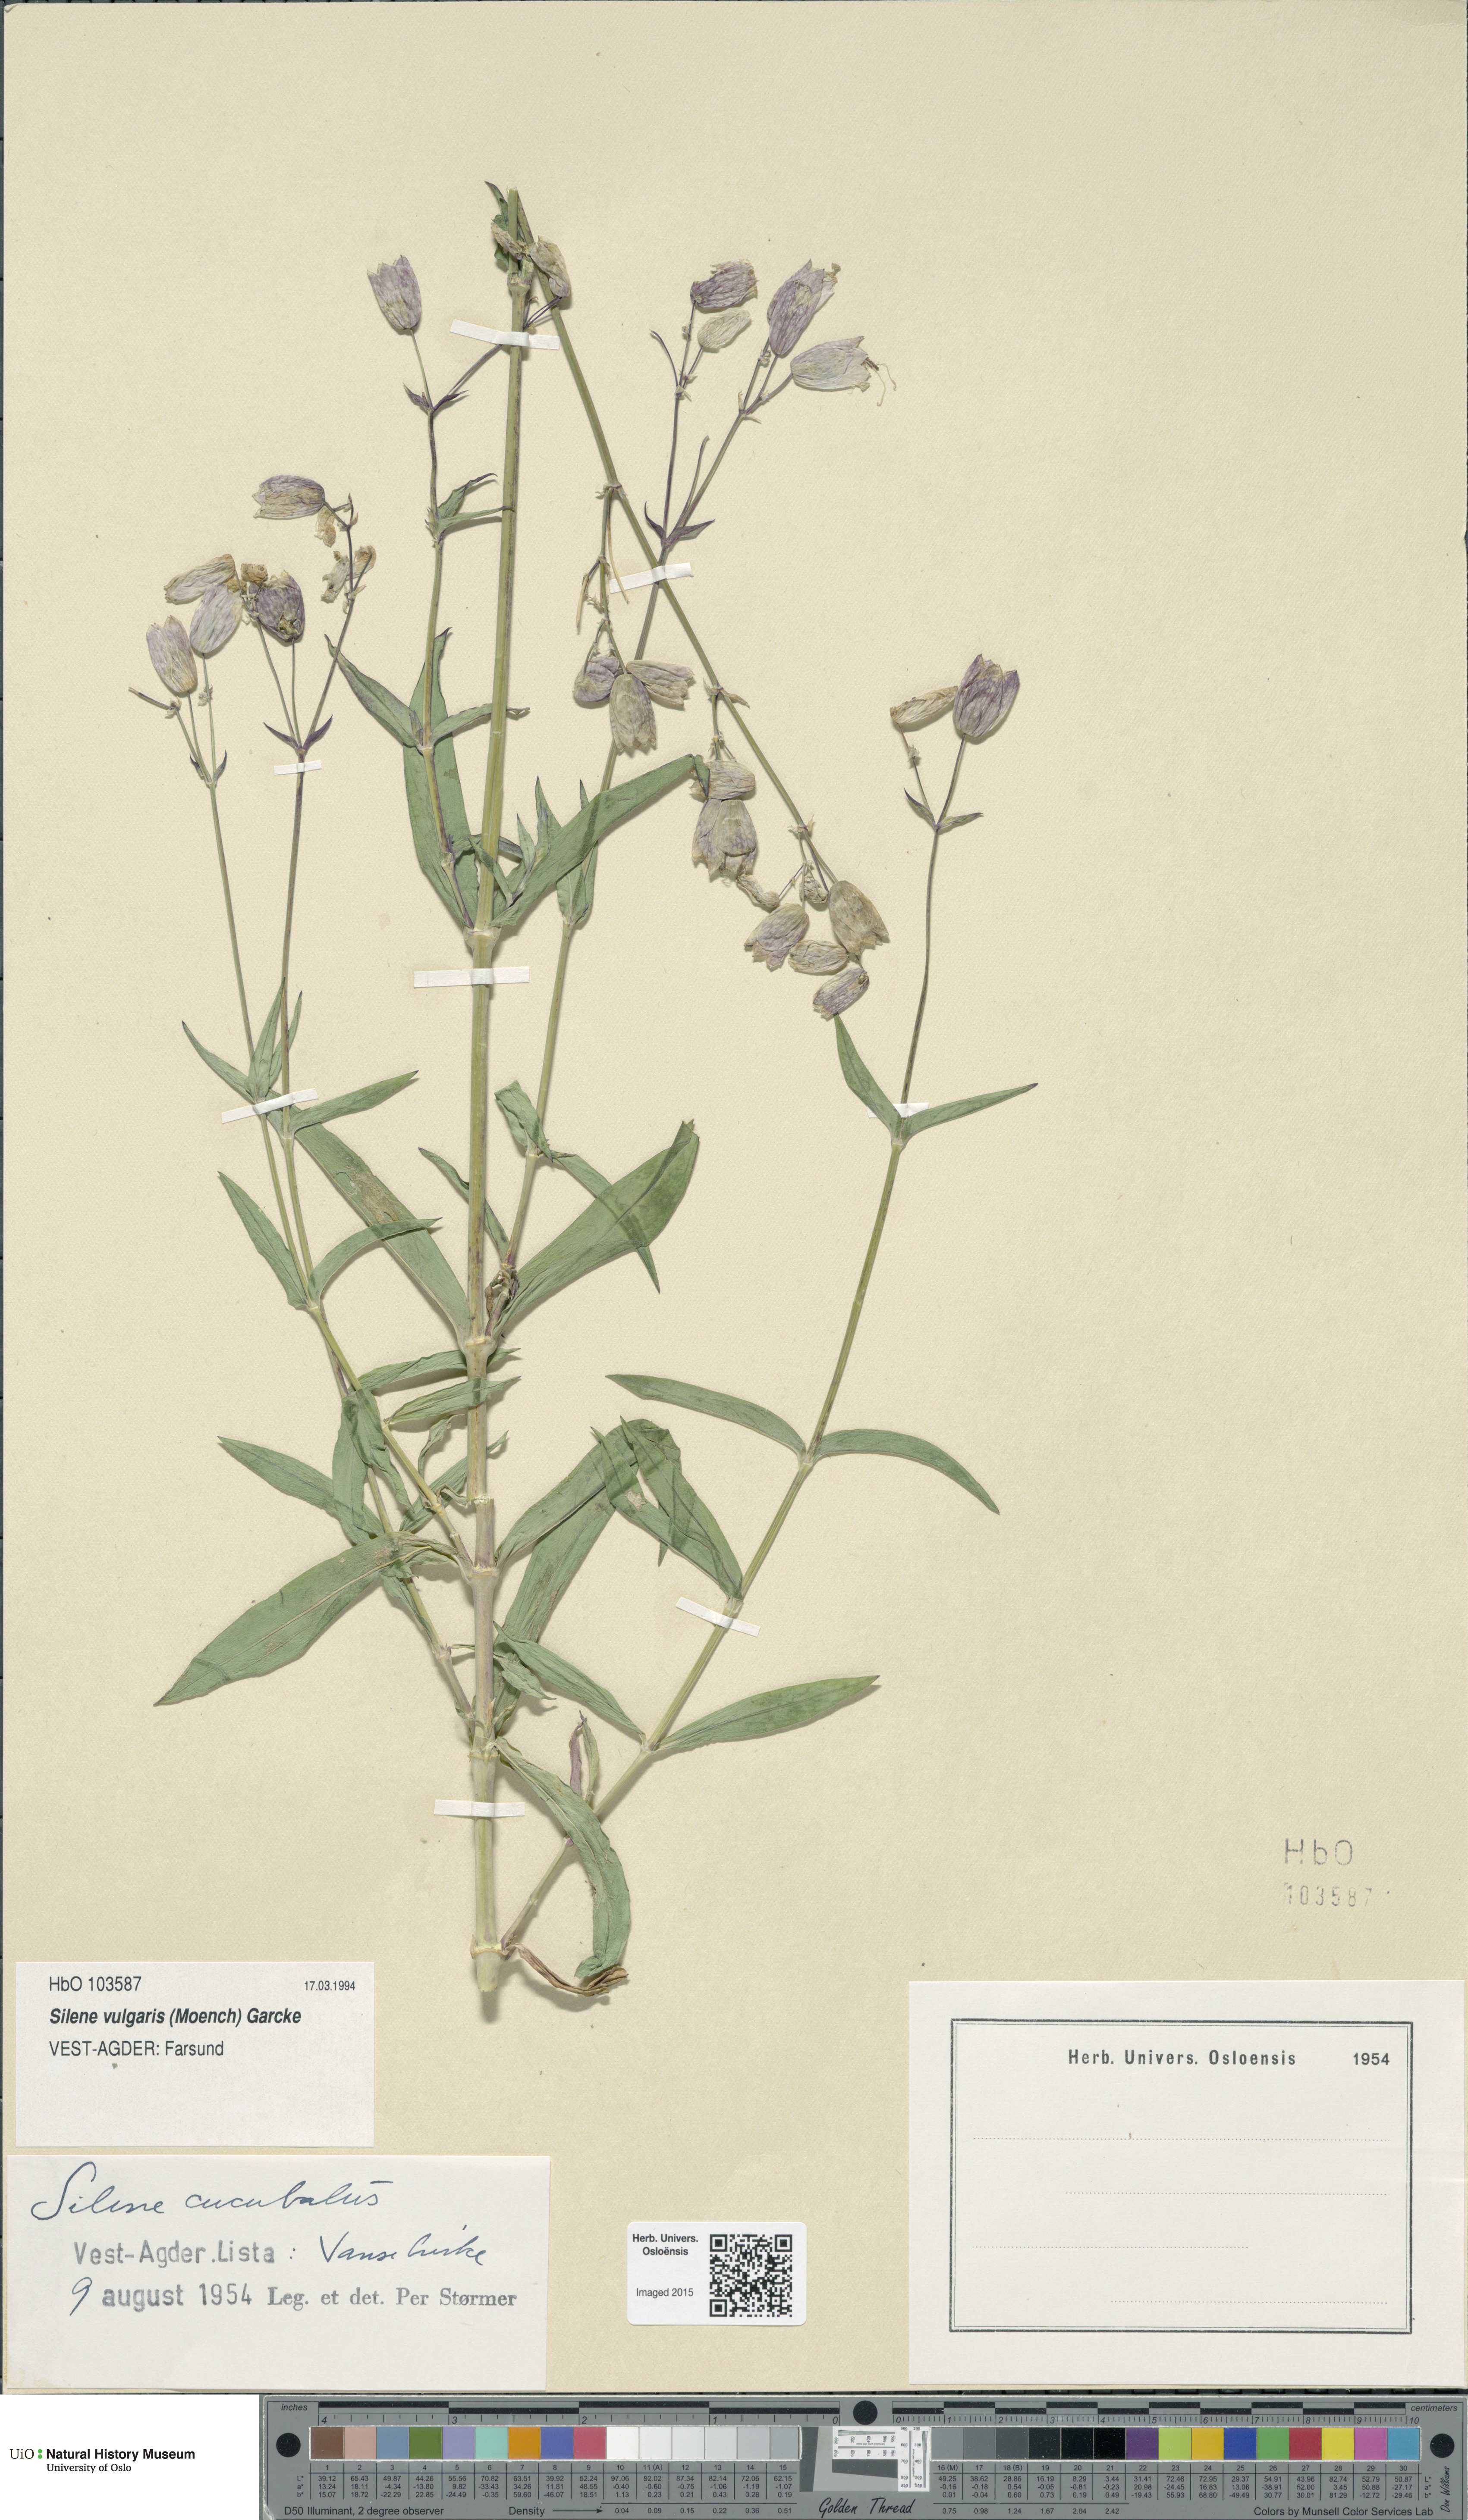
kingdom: Plantae
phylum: Tracheophyta
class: Magnoliopsida
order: Caryophyllales
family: Caryophyllaceae
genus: Silene
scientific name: Silene vulgaris
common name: Bladder campion
